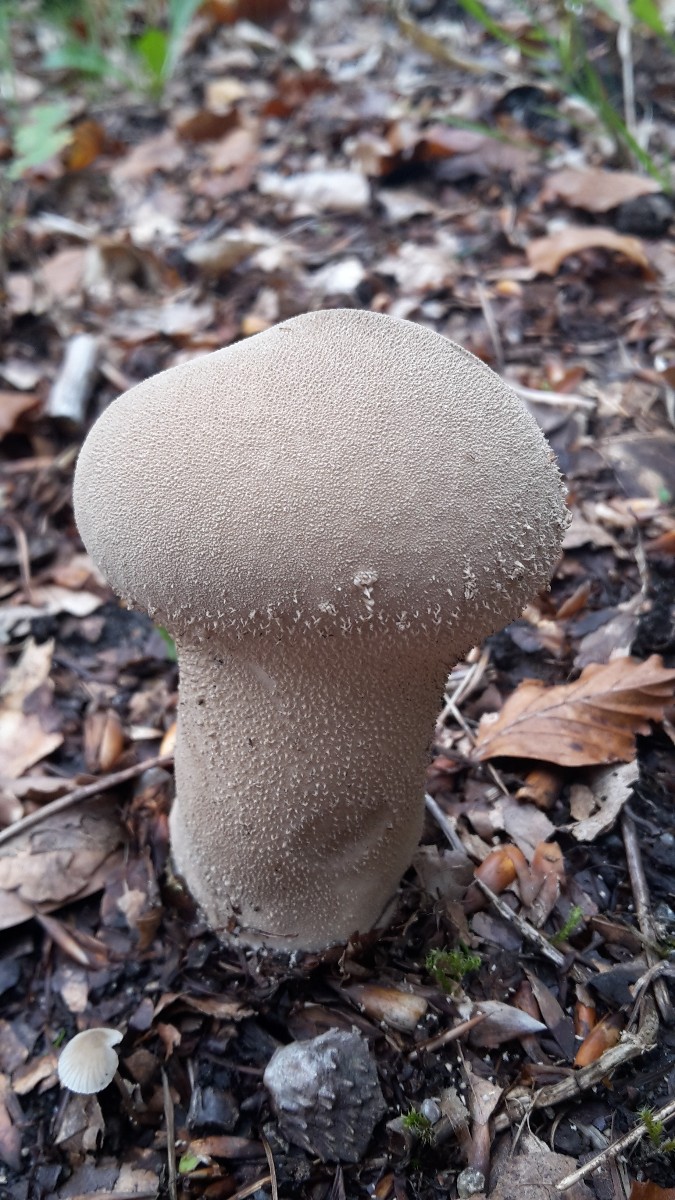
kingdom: Fungi
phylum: Basidiomycota
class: Agaricomycetes
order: Agaricales
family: Lycoperdaceae
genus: Lycoperdon
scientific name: Lycoperdon excipuliforme
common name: højstokket støvbold
